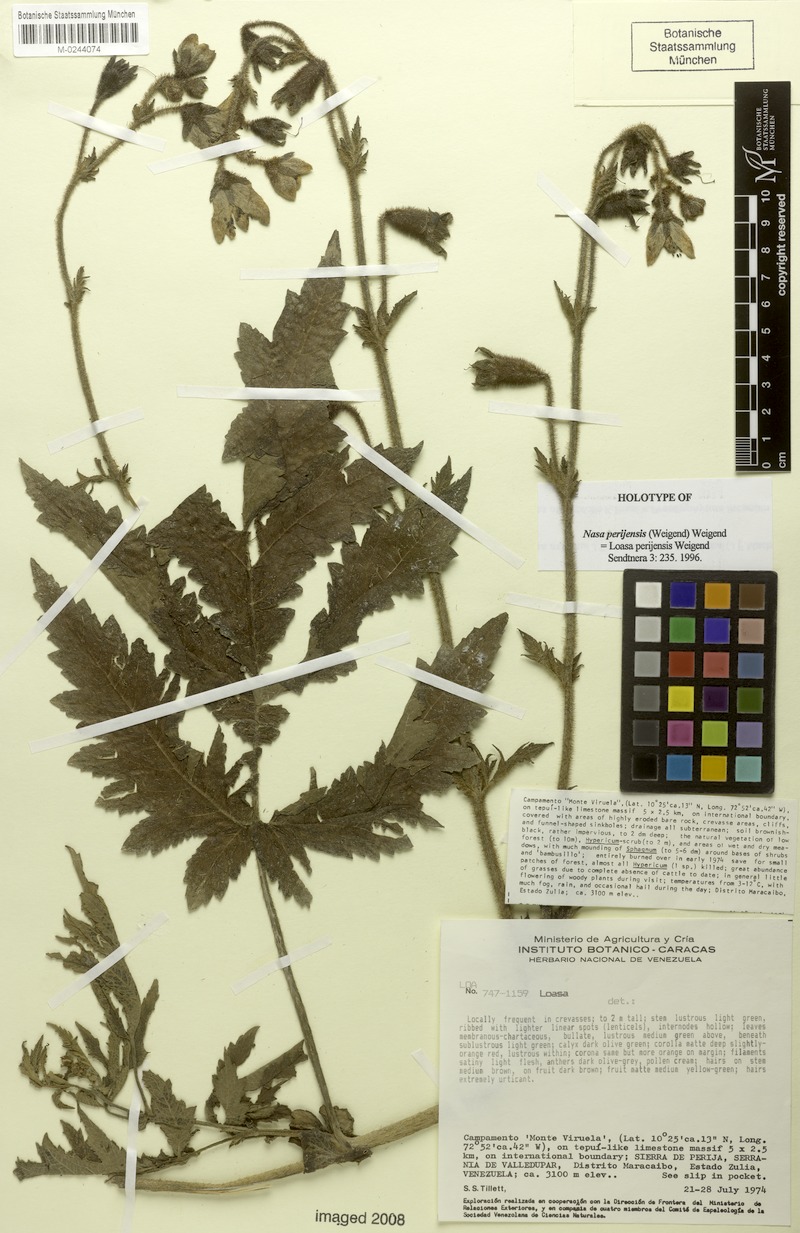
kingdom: Plantae
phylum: Tracheophyta
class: Magnoliopsida
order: Cornales
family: Loasaceae
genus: Nasa
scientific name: Nasa perijensis
